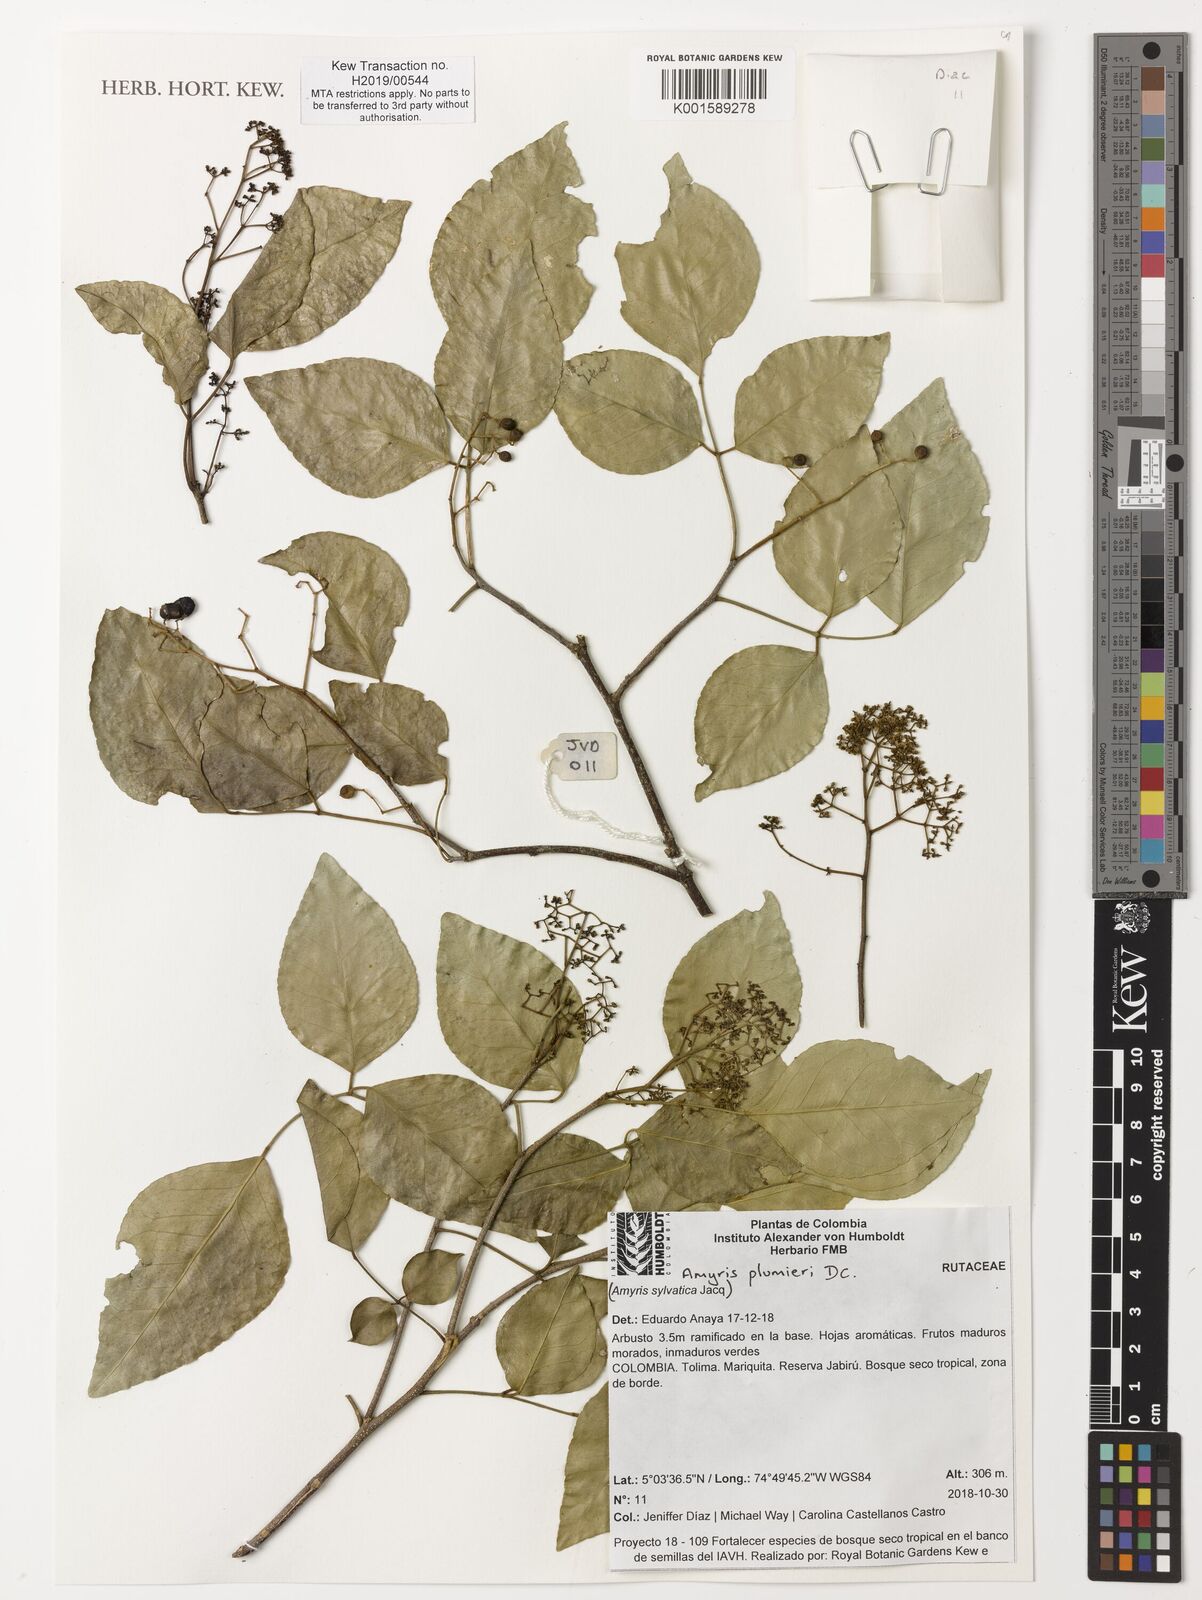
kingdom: Plantae
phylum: Tracheophyta
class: Magnoliopsida
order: Sapindales
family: Rutaceae
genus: Amyris
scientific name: Amyris sylvatica
